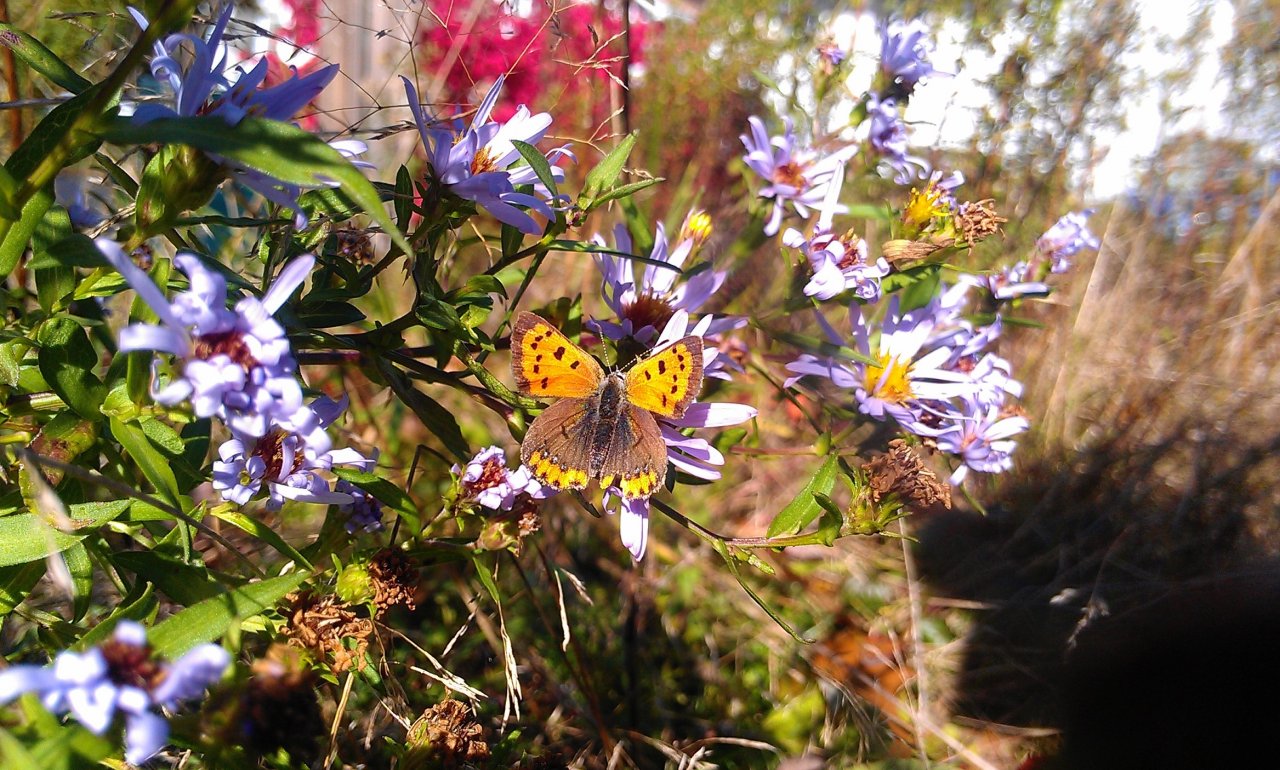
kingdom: Animalia
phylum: Arthropoda
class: Insecta
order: Lepidoptera
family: Lycaenidae
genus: Lycaena
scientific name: Lycaena phlaeas
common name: American Copper
